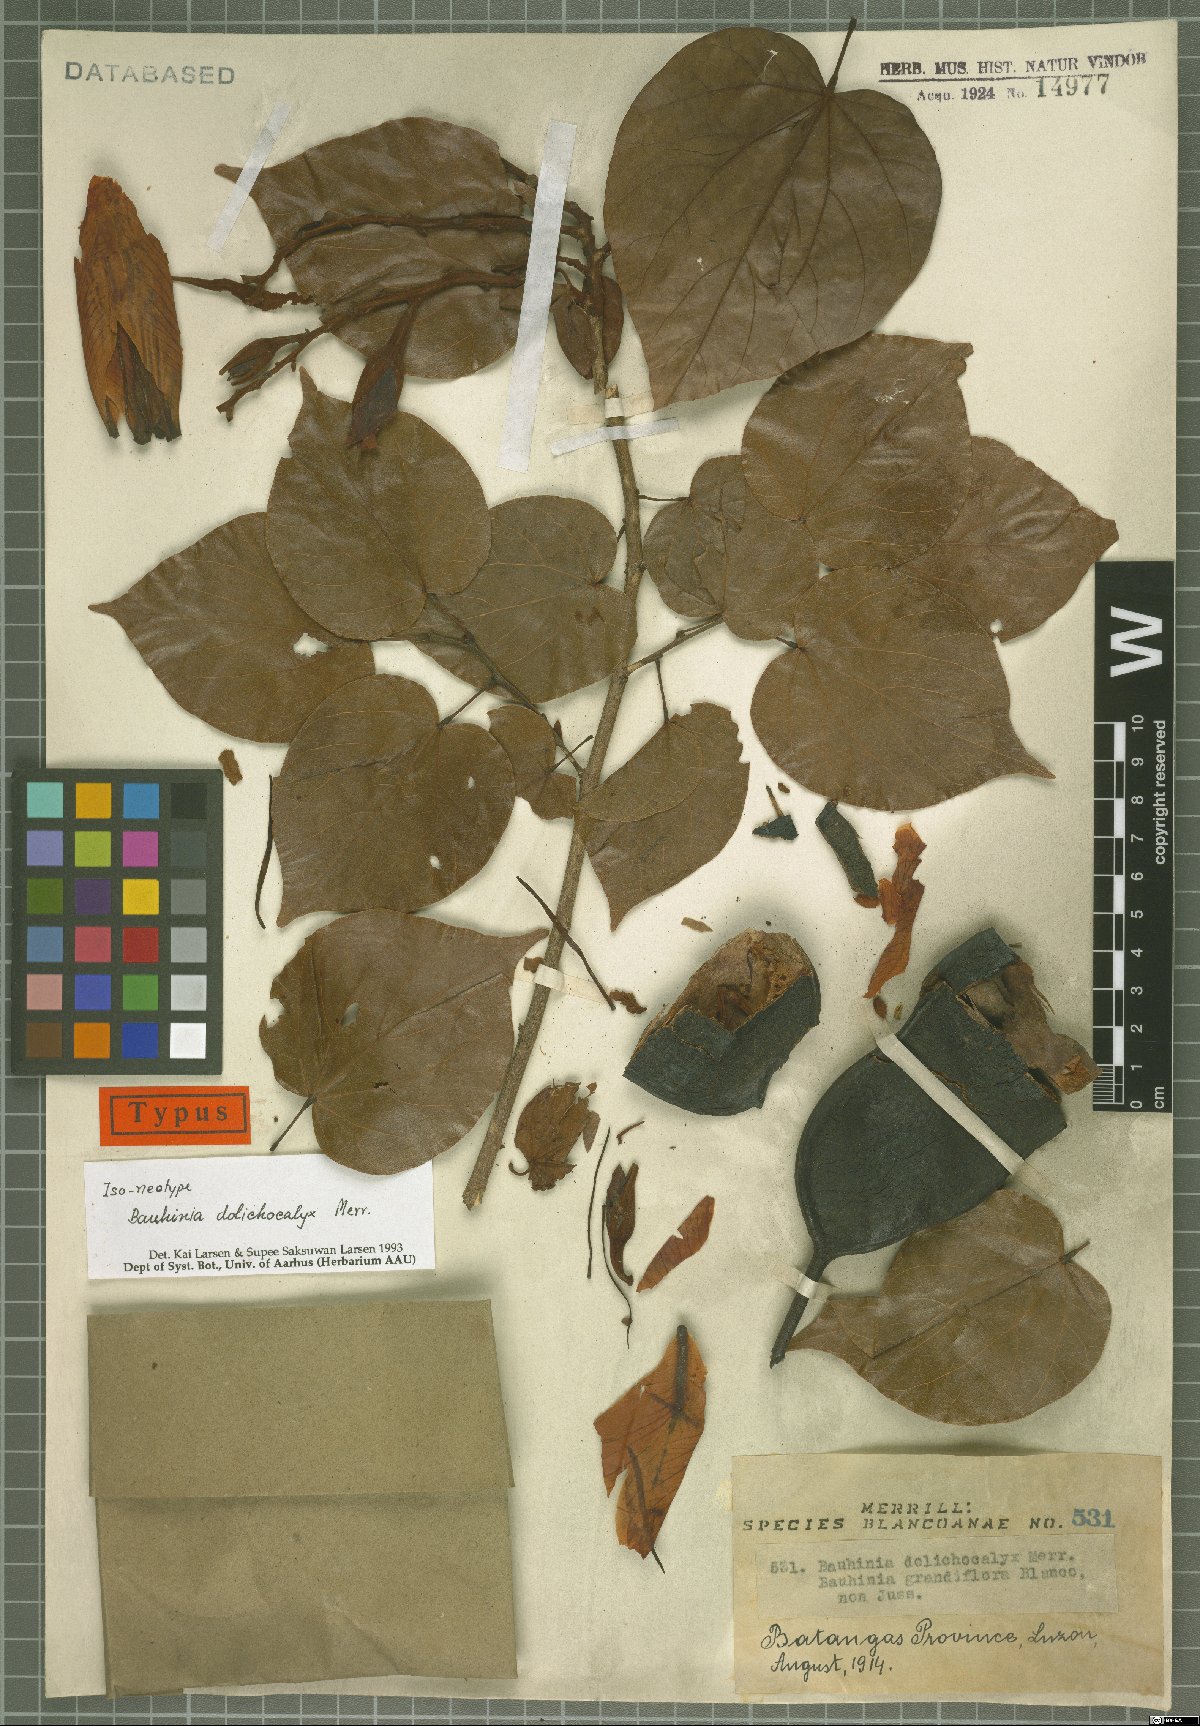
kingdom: Plantae
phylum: Tracheophyta
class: Magnoliopsida
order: Fabales
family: Fabaceae
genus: Gigasiphon
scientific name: Gigasiphon dolichocalyx
